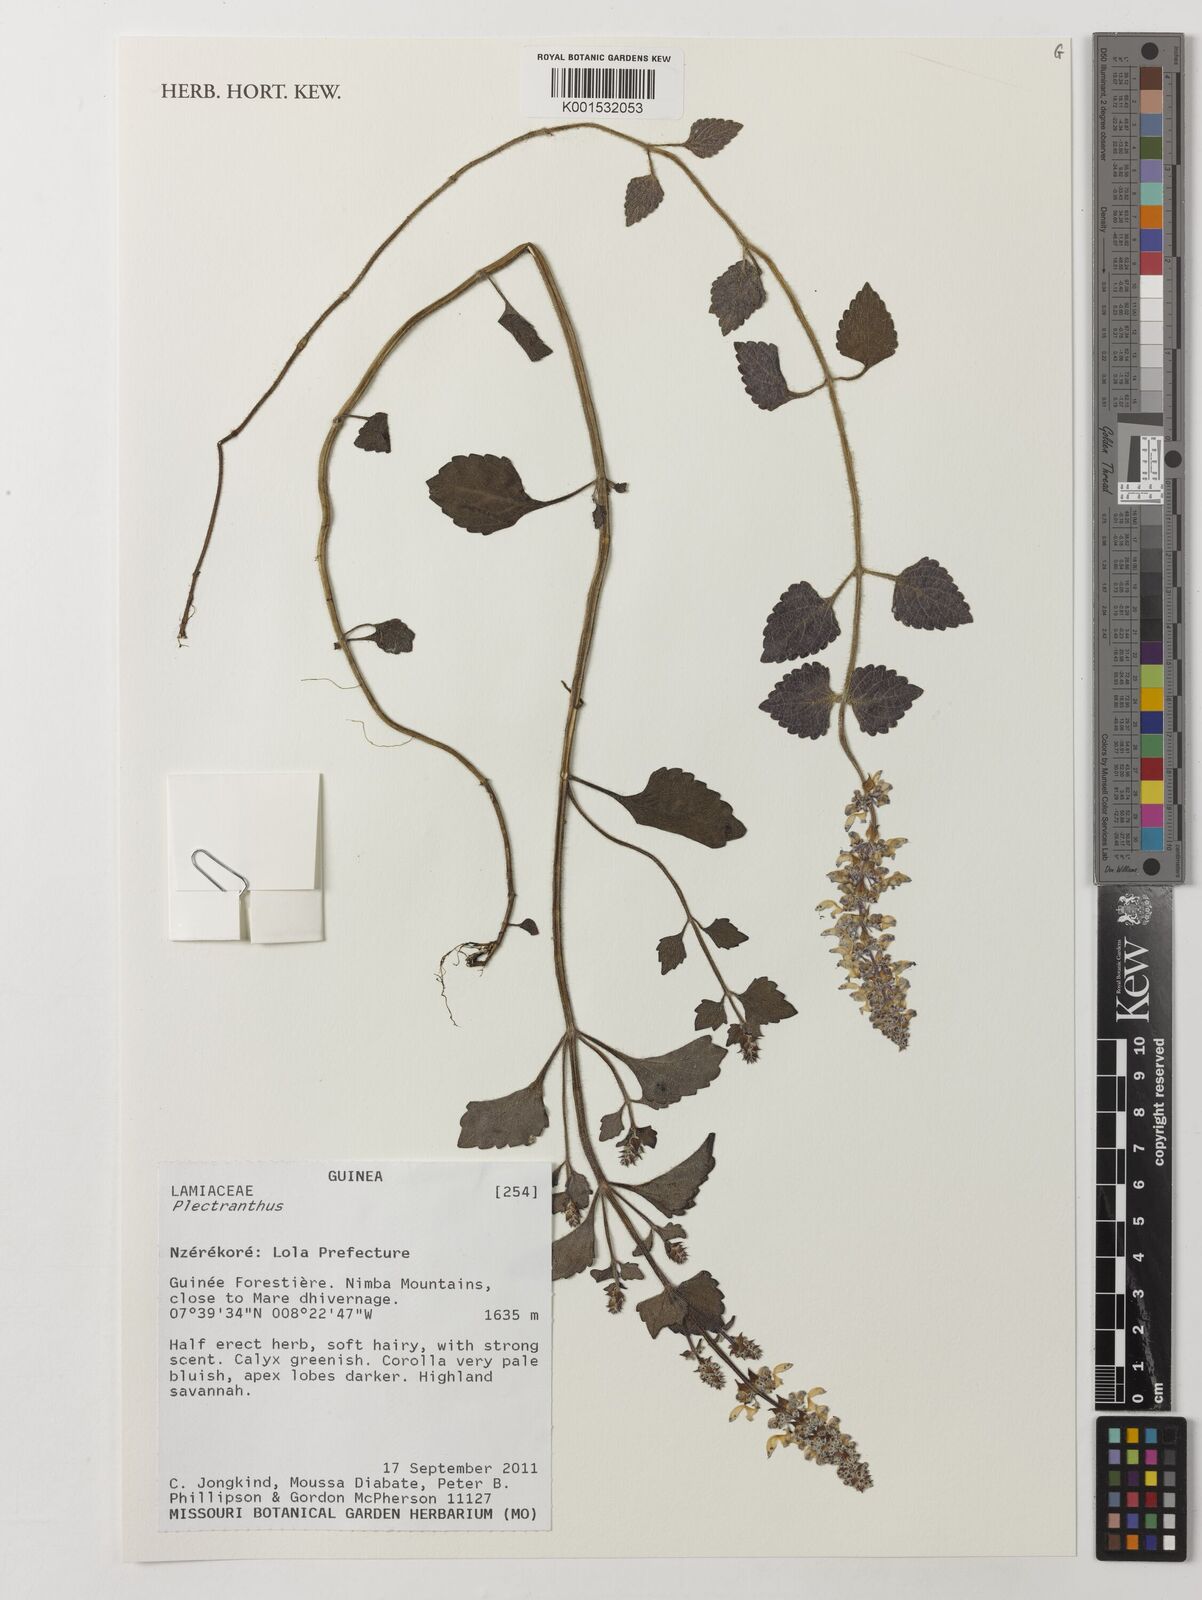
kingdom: Plantae
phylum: Tracheophyta
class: Magnoliopsida
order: Lamiales
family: Lamiaceae
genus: Plectranthus
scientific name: Plectranthus
